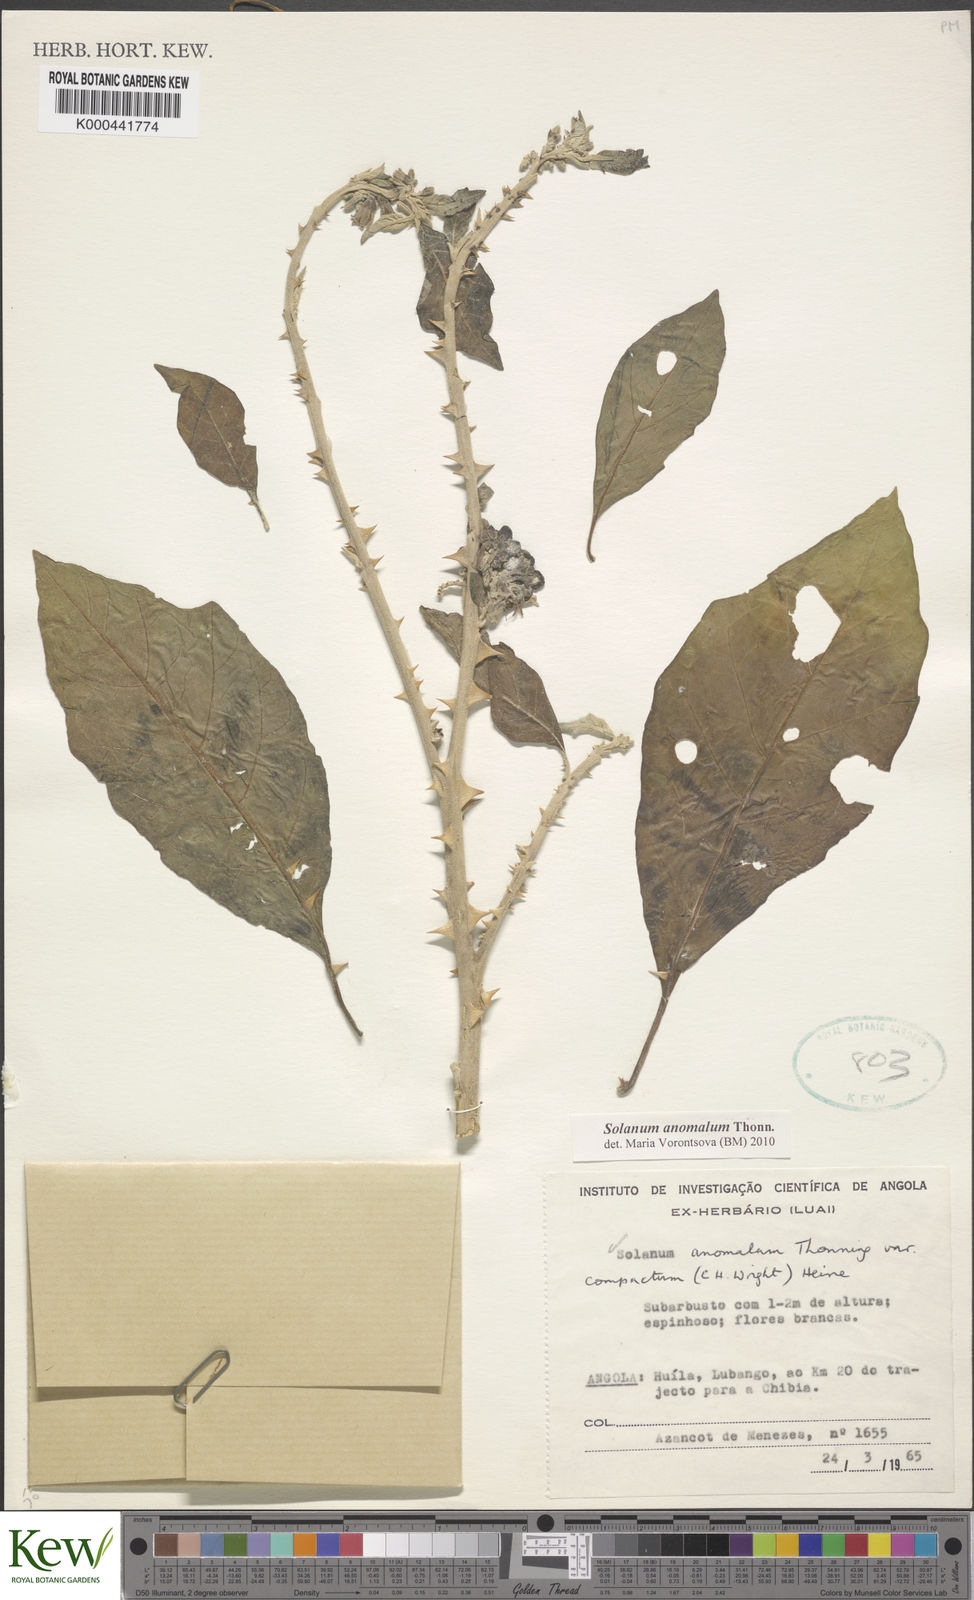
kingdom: Plantae
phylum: Tracheophyta
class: Magnoliopsida
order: Solanales
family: Solanaceae
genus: Solanum
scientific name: Solanum anomalum
